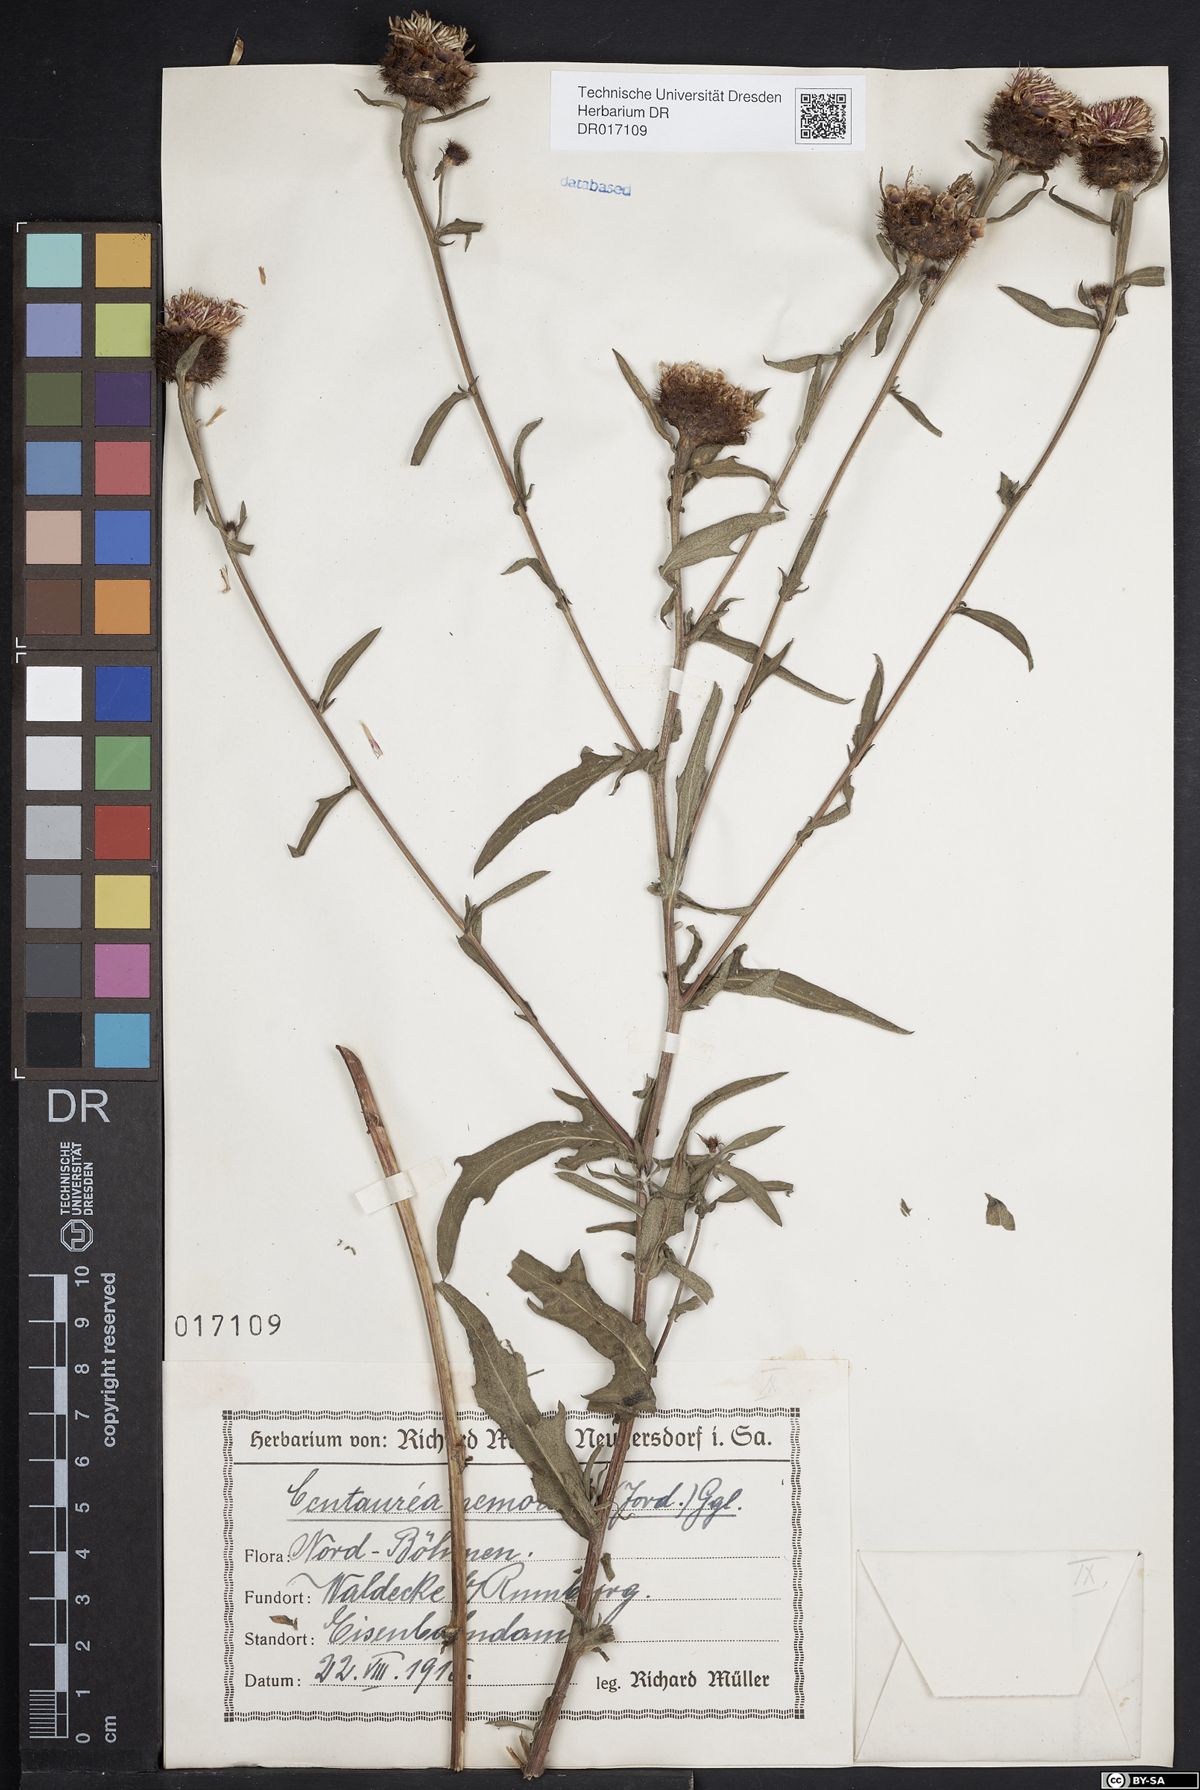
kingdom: Plantae
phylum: Tracheophyta
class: Magnoliopsida
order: Asterales
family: Asteraceae
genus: Centaurea
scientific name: Centaurea nigra
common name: Lesser knapweed
